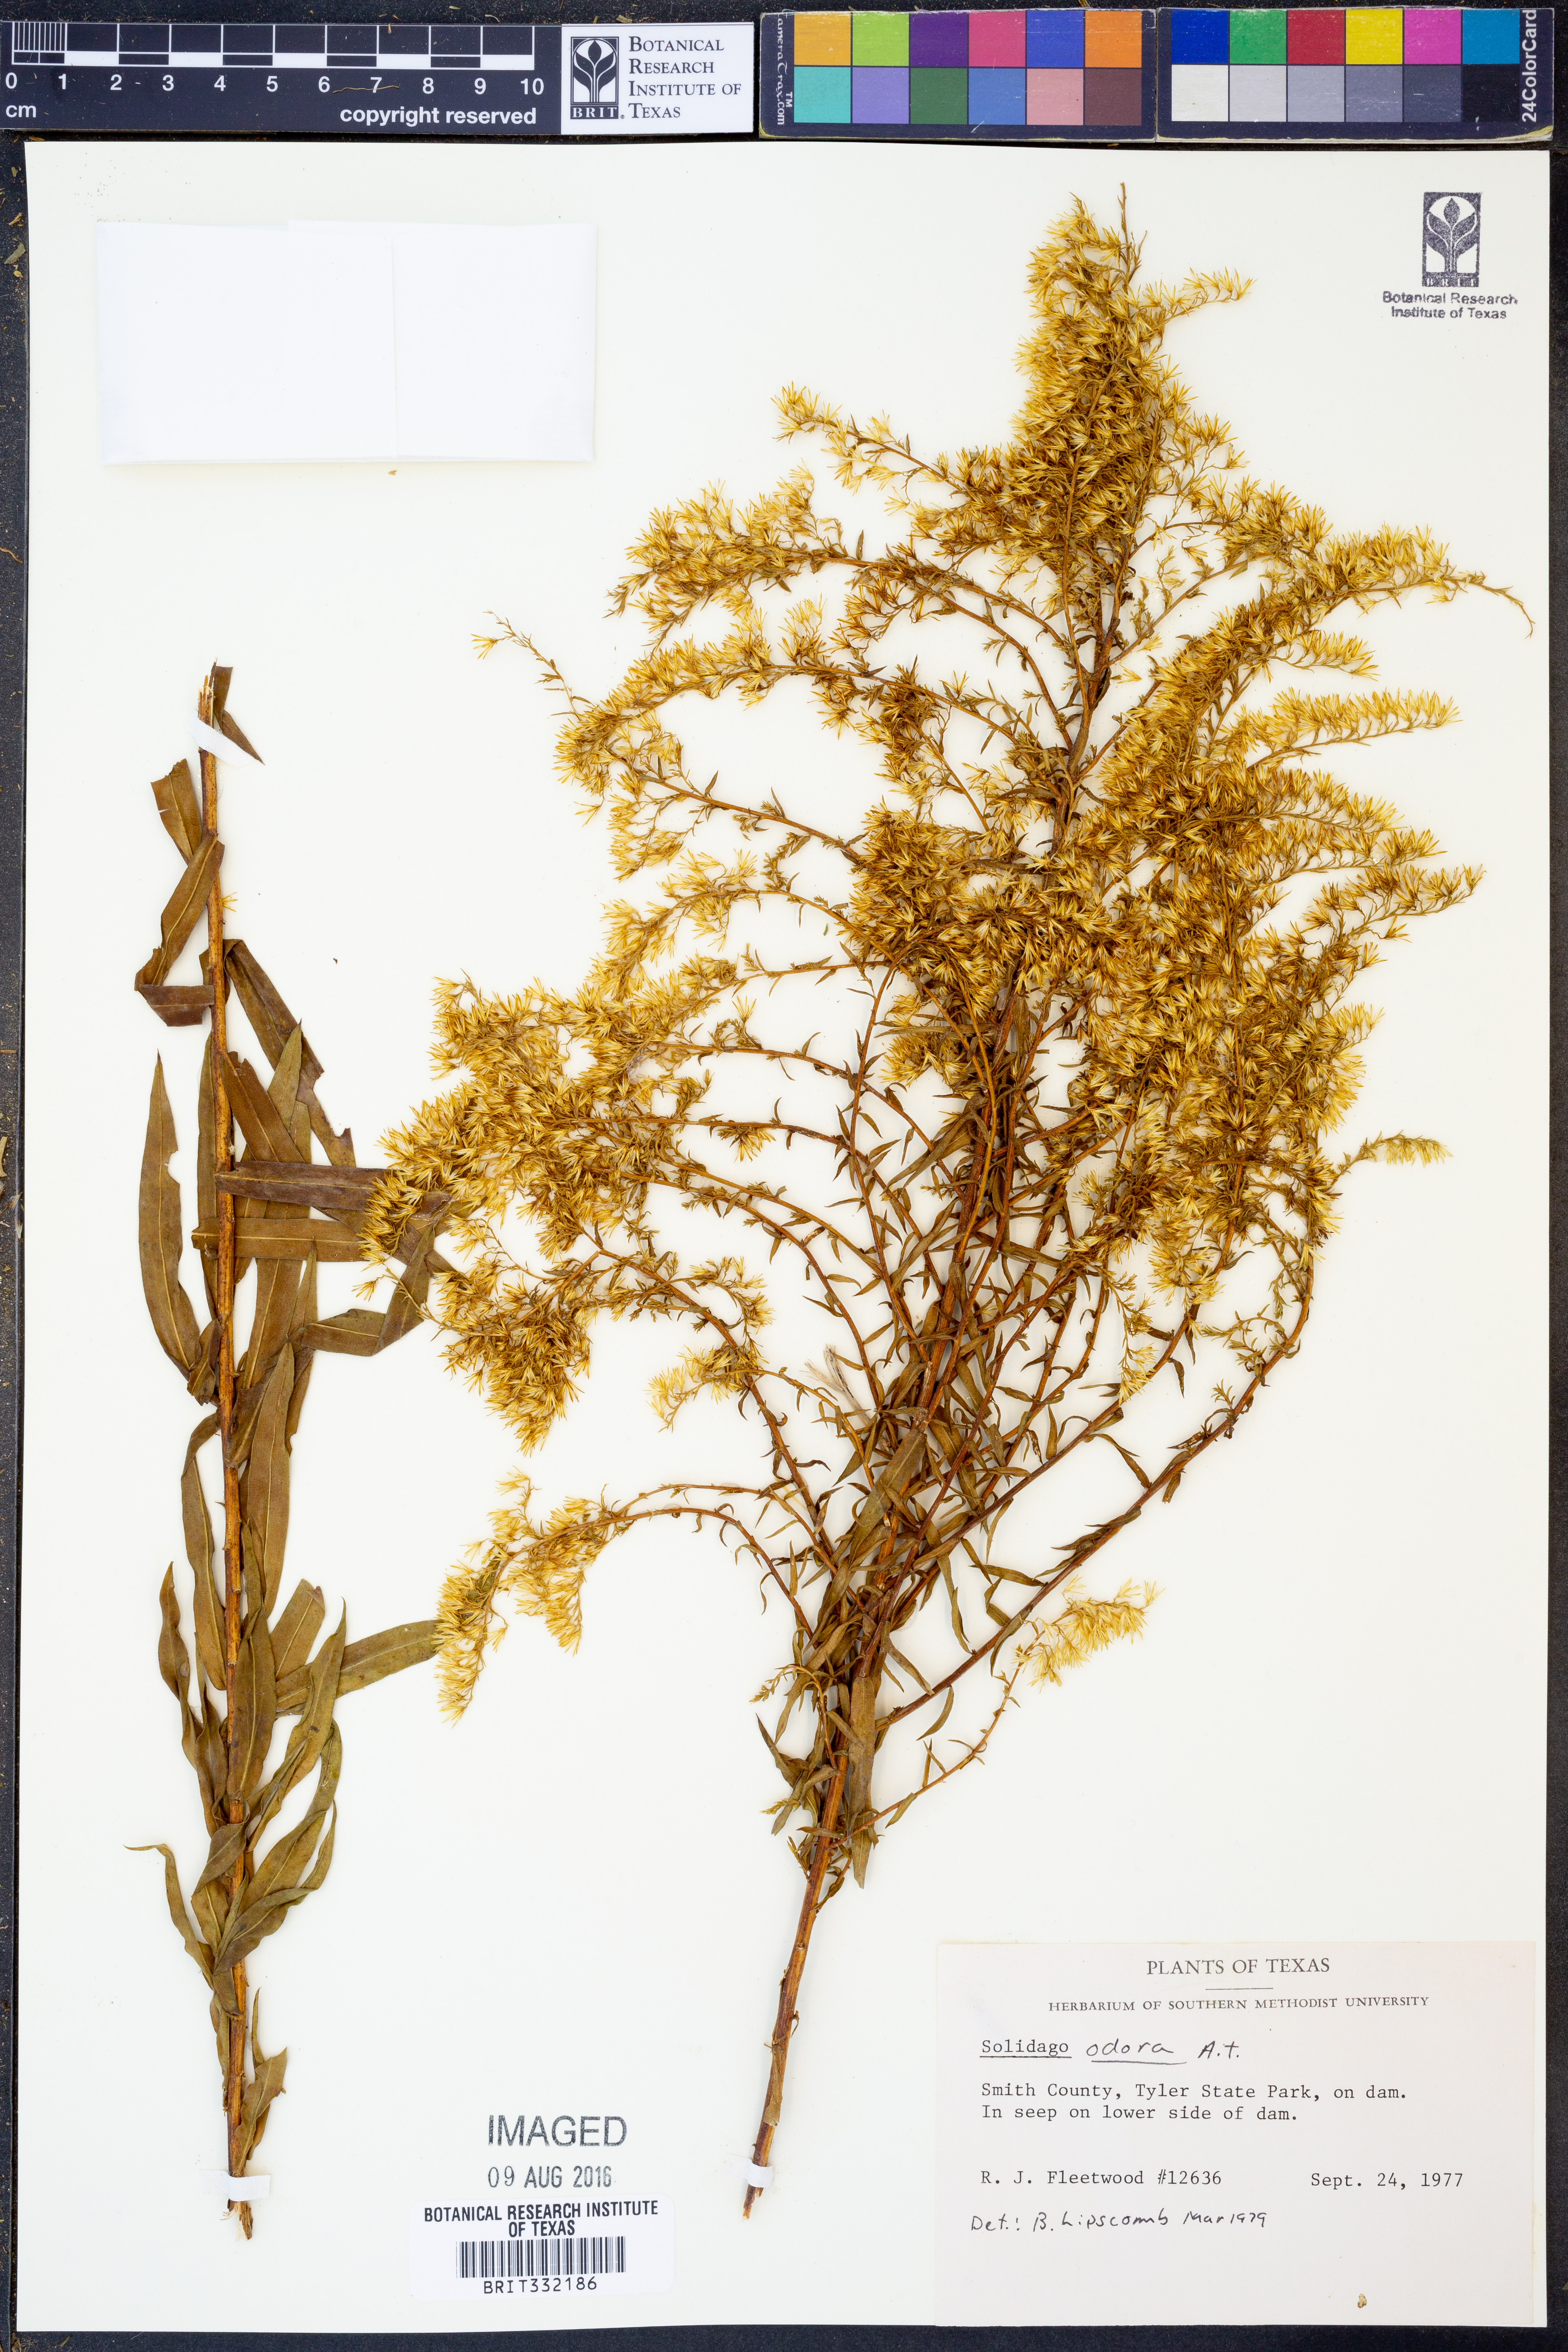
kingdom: Plantae
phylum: Tracheophyta
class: Magnoliopsida
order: Asterales
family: Asteraceae
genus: Solidago
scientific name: Solidago odora
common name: Anise-scented goldenrod
